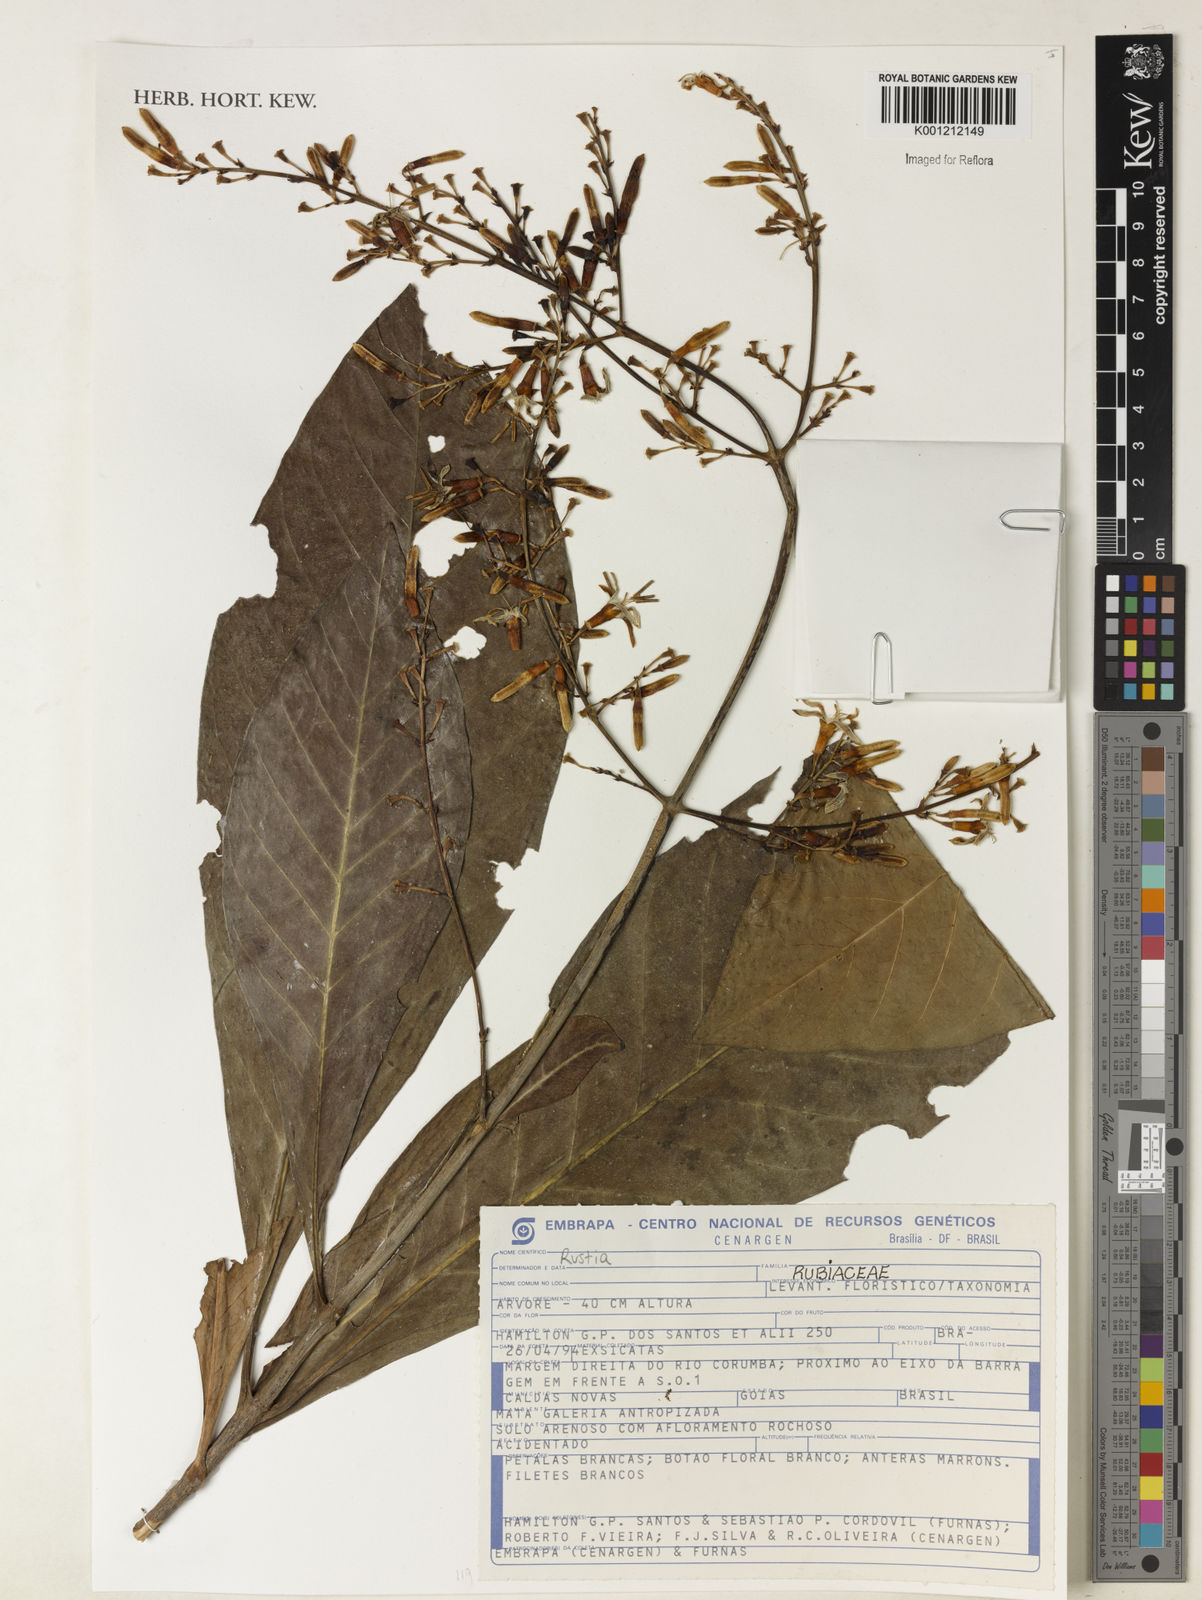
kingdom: Plantae
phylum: Tracheophyta
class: Magnoliopsida
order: Gentianales
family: Rubiaceae
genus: Rustia
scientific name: Rustia
